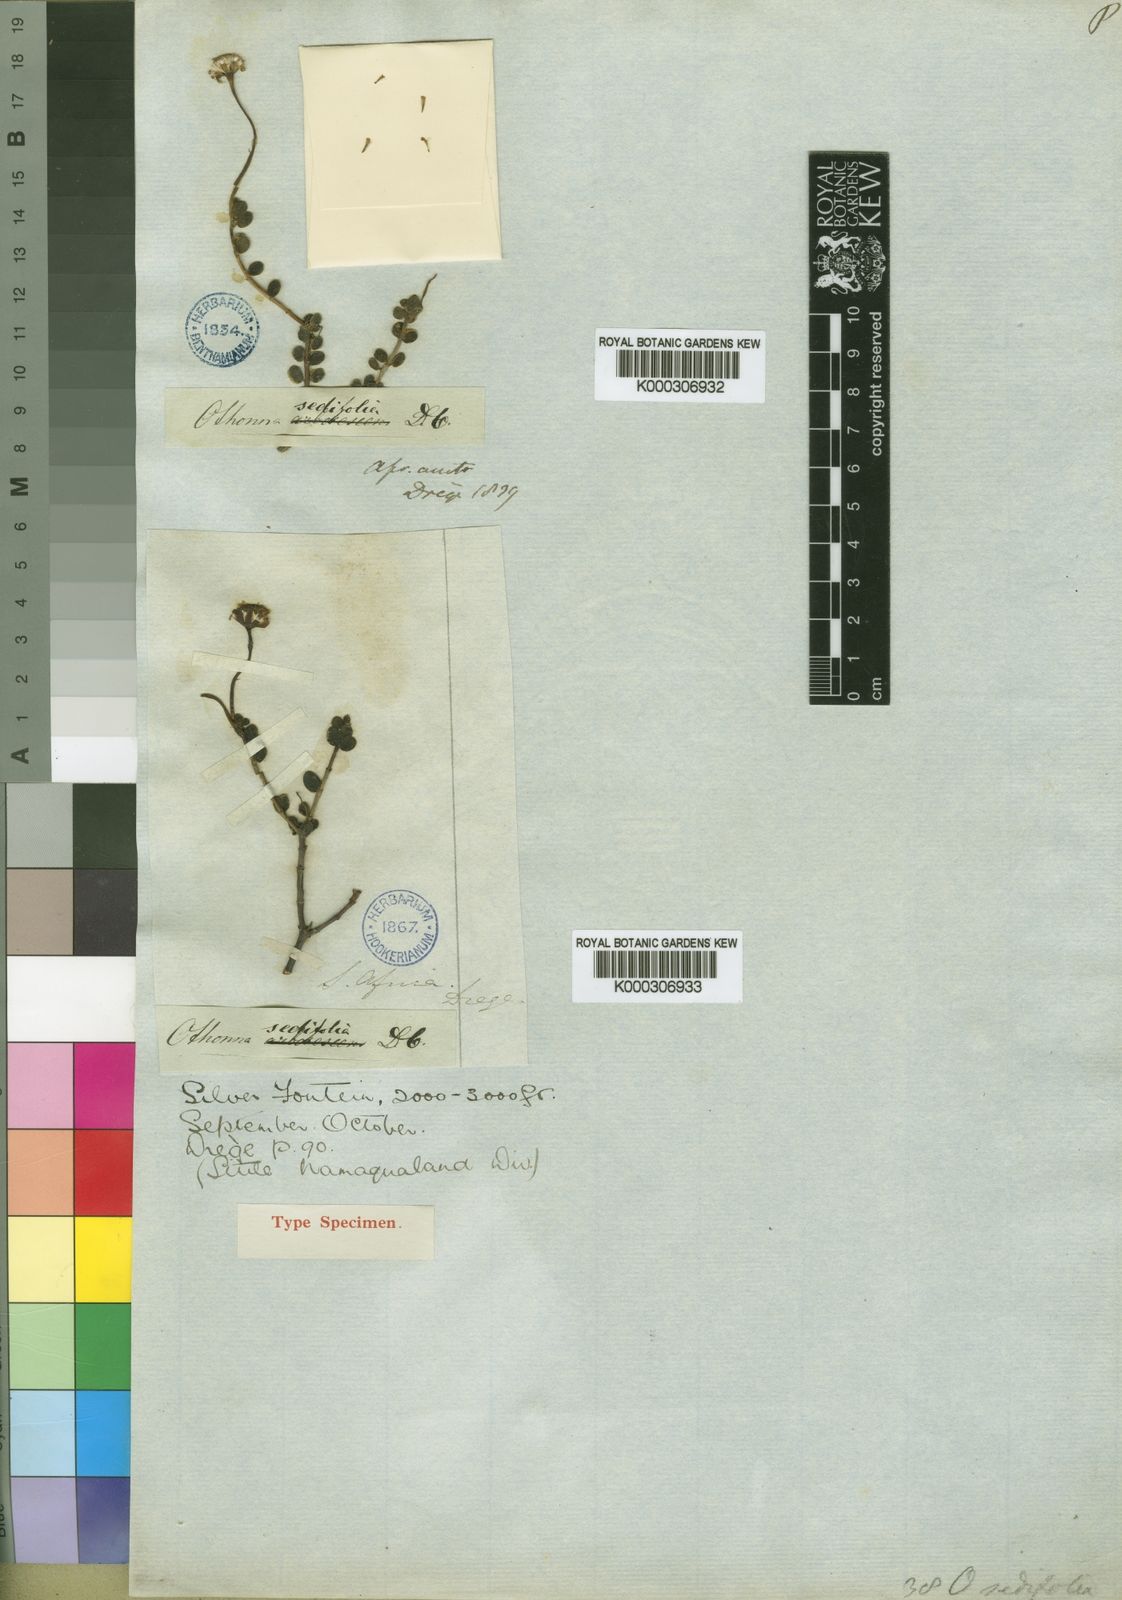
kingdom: Plantae
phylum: Tracheophyta
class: Magnoliopsida
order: Asterales
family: Asteraceae
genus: Crassothonna
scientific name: Crassothonna sedifolia
